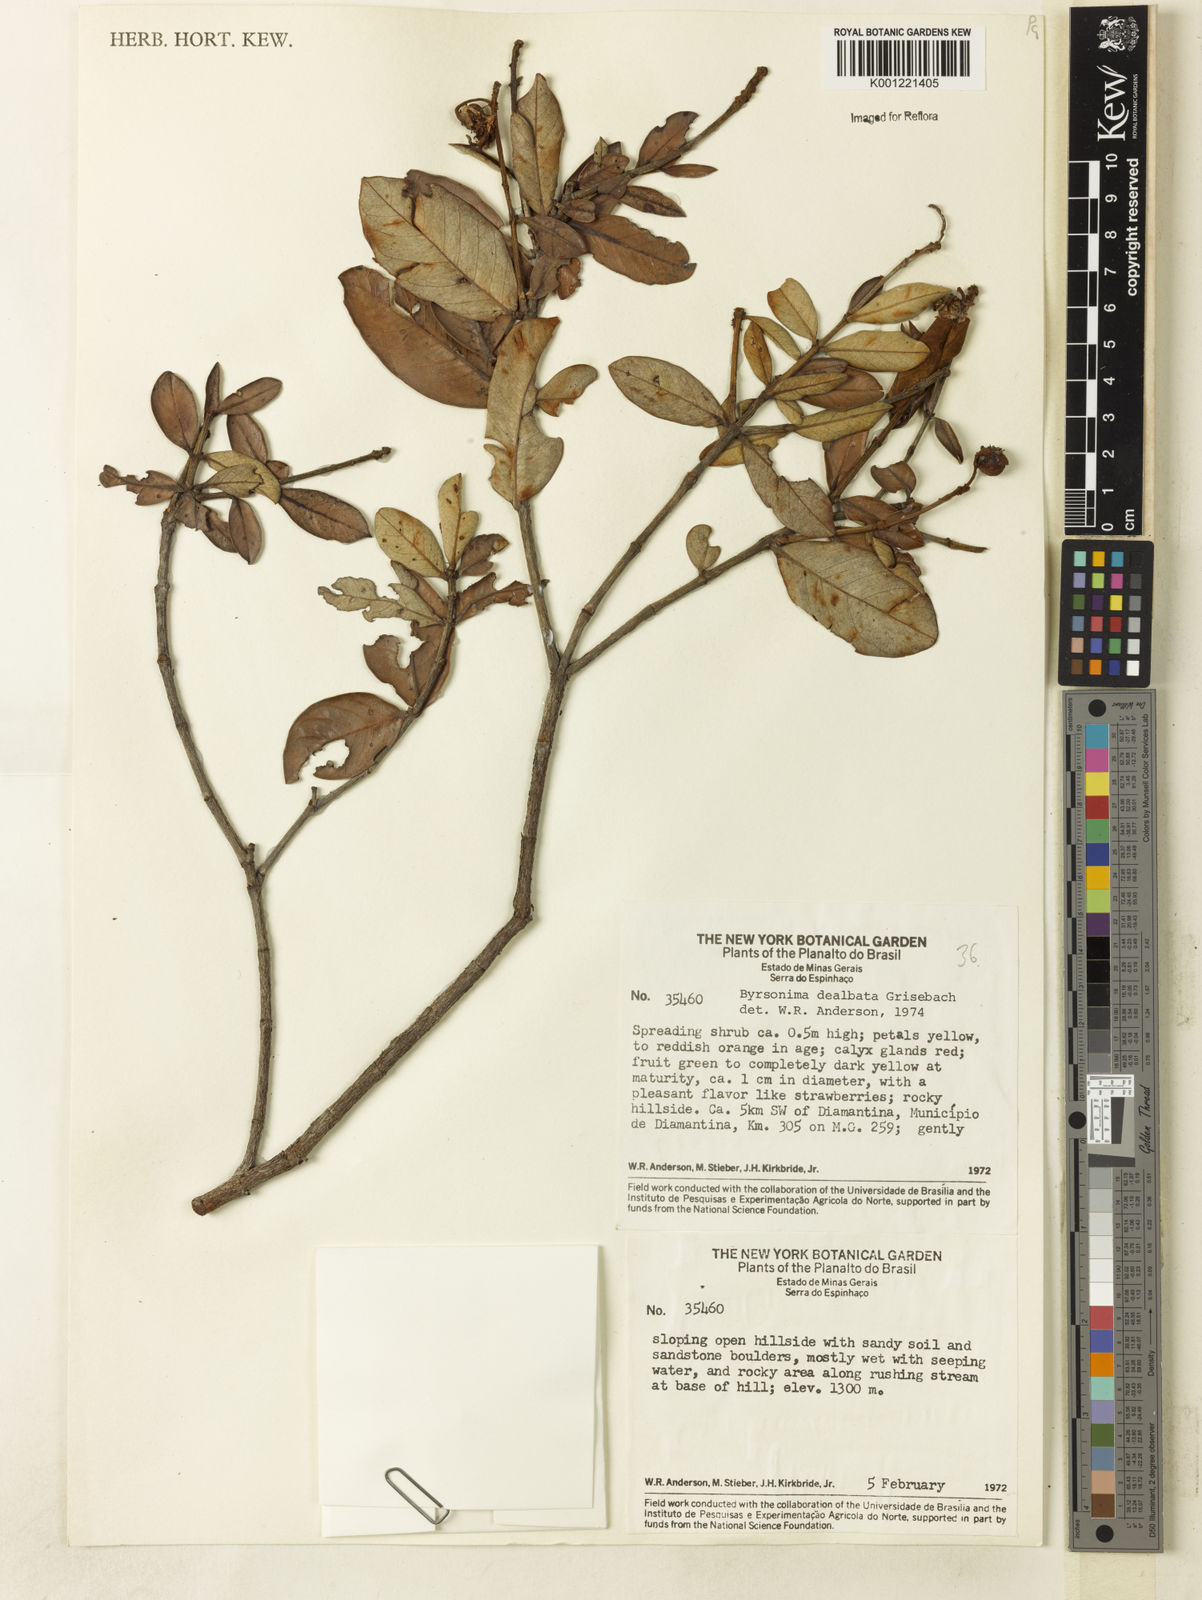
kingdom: Plantae
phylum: Tracheophyta
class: Magnoliopsida
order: Malpighiales
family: Malpighiaceae
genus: Byrsonima
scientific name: Byrsonima dealbata
